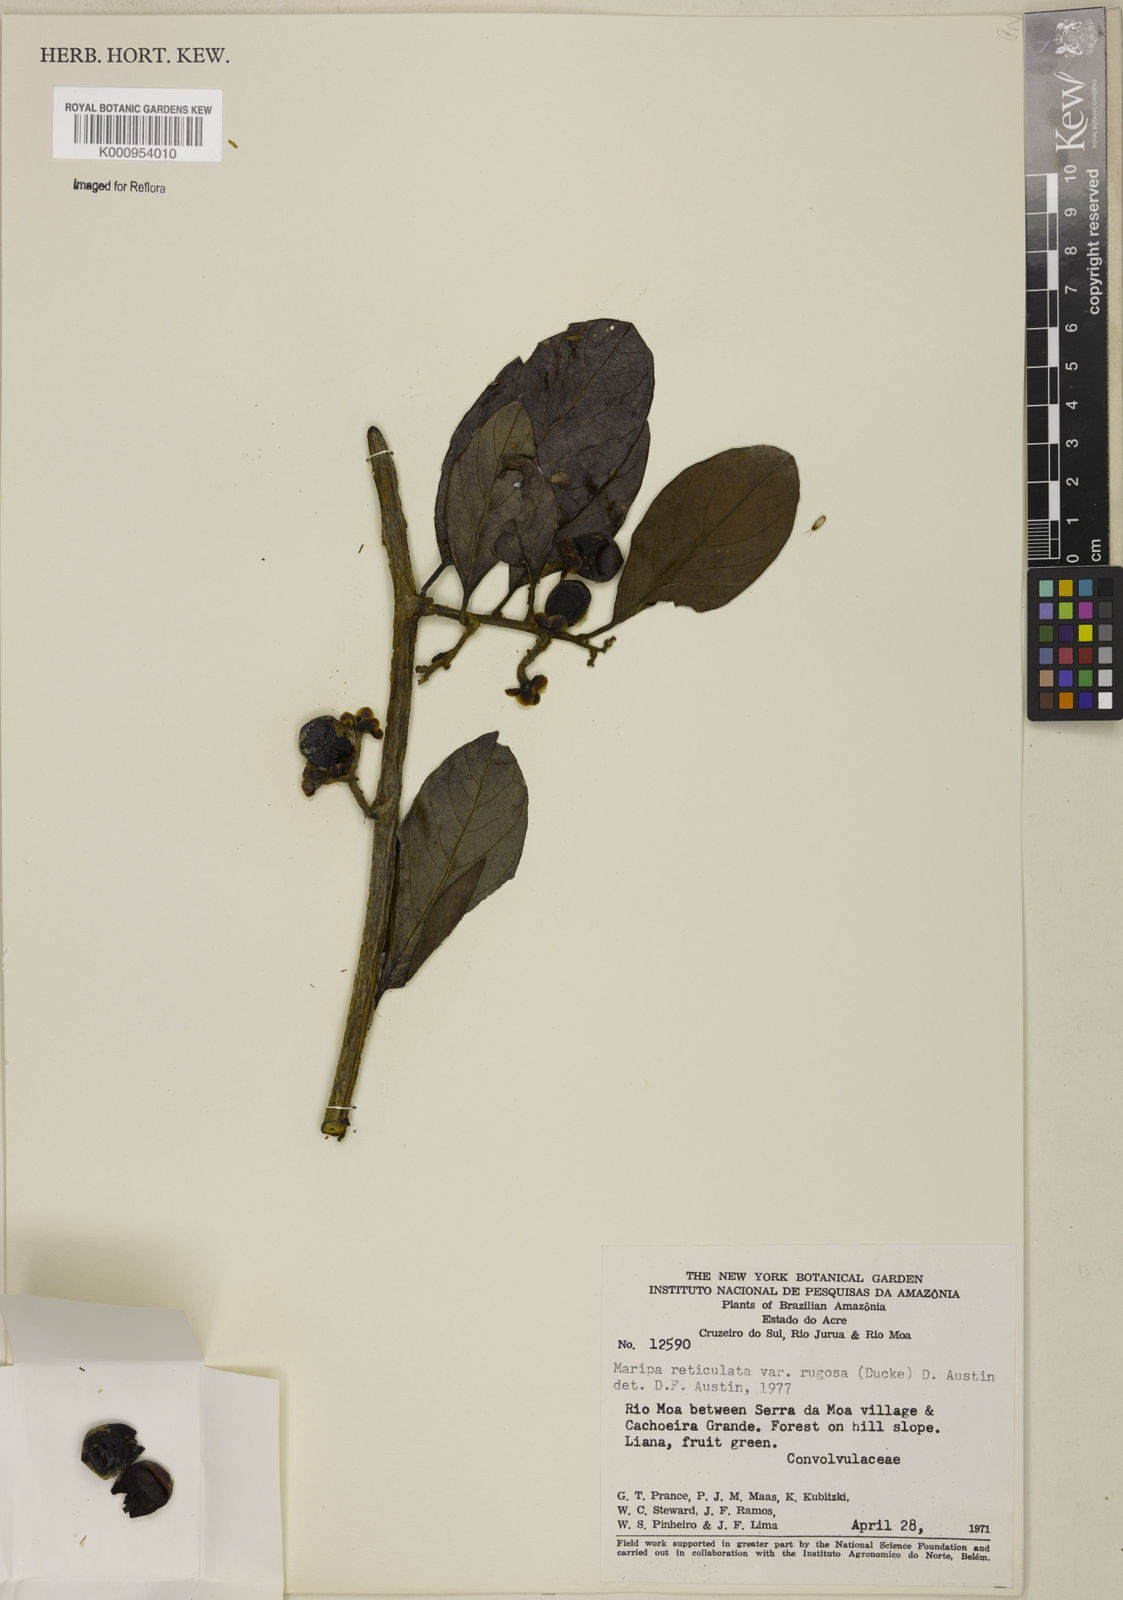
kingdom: Plantae
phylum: Tracheophyta
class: Magnoliopsida
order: Solanales
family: Convolvulaceae
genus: Maripa
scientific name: Maripa reticulata
